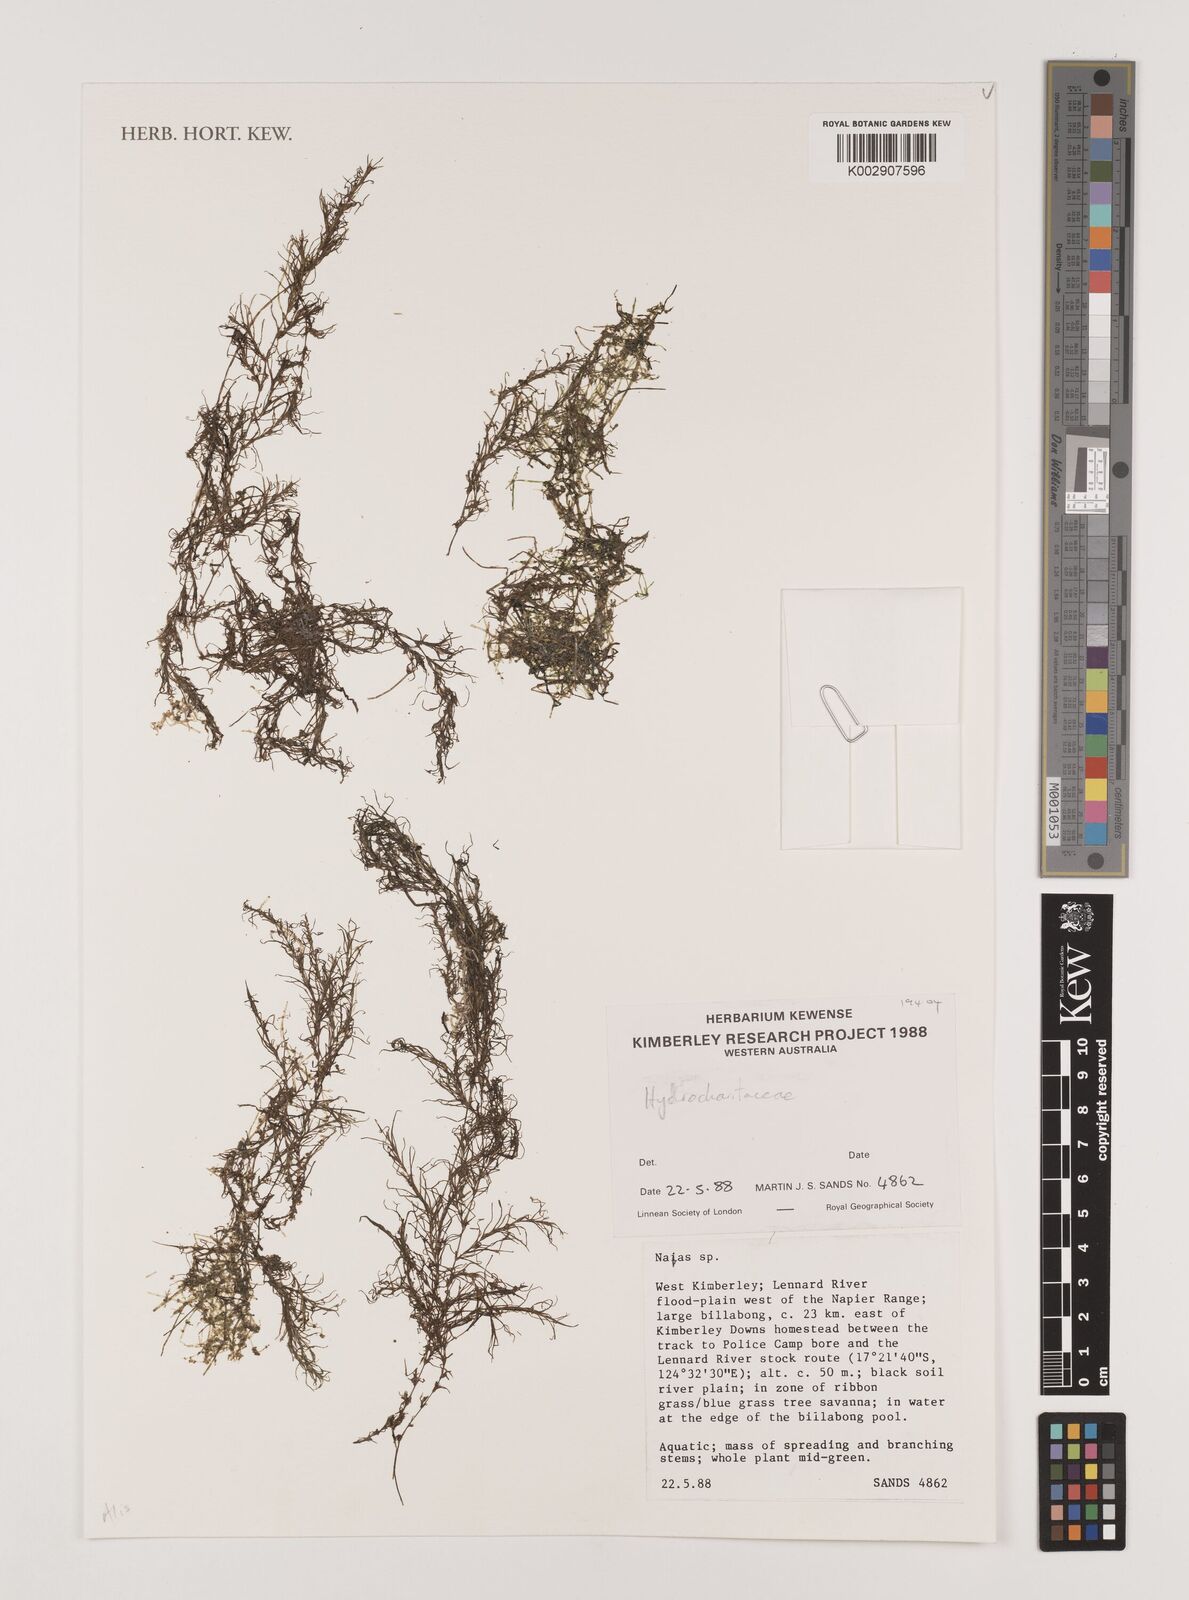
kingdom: Plantae
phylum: Tracheophyta
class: Liliopsida
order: Alismatales
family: Hydrocharitaceae
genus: Najas
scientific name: Najas
